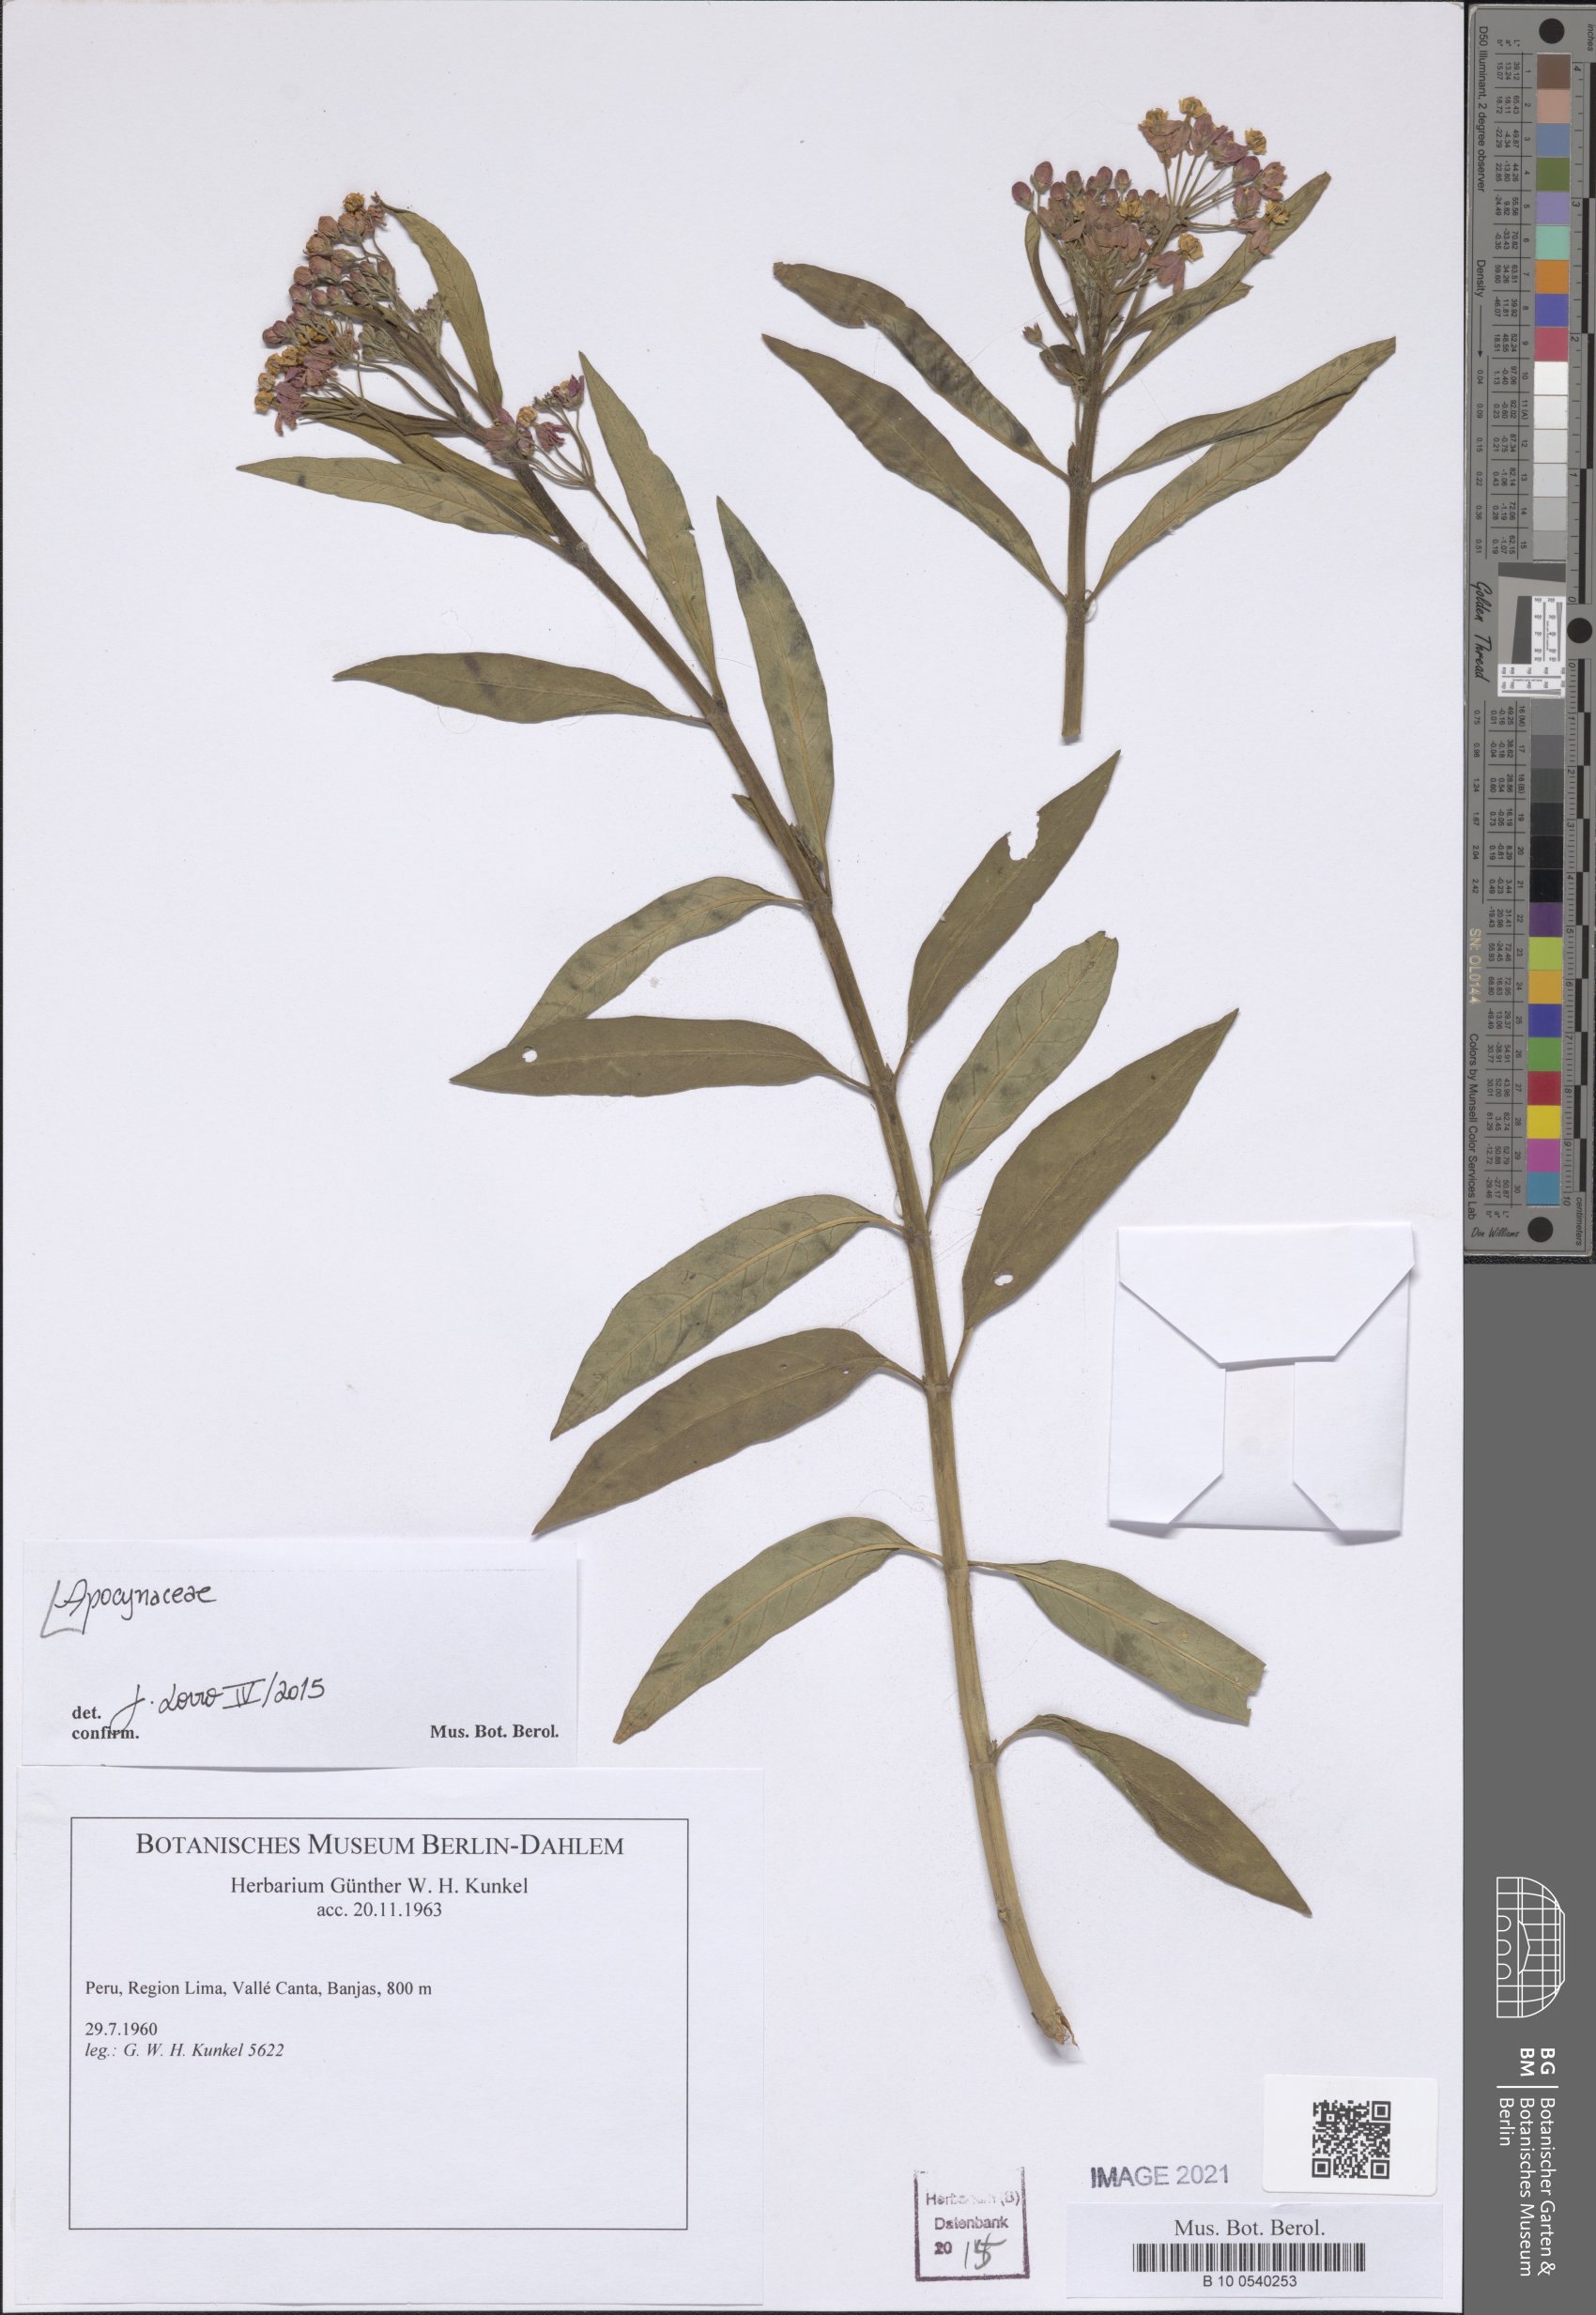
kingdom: Plantae
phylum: Tracheophyta
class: Magnoliopsida
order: Gentianales
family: Apocynaceae
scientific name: Apocynaceae
